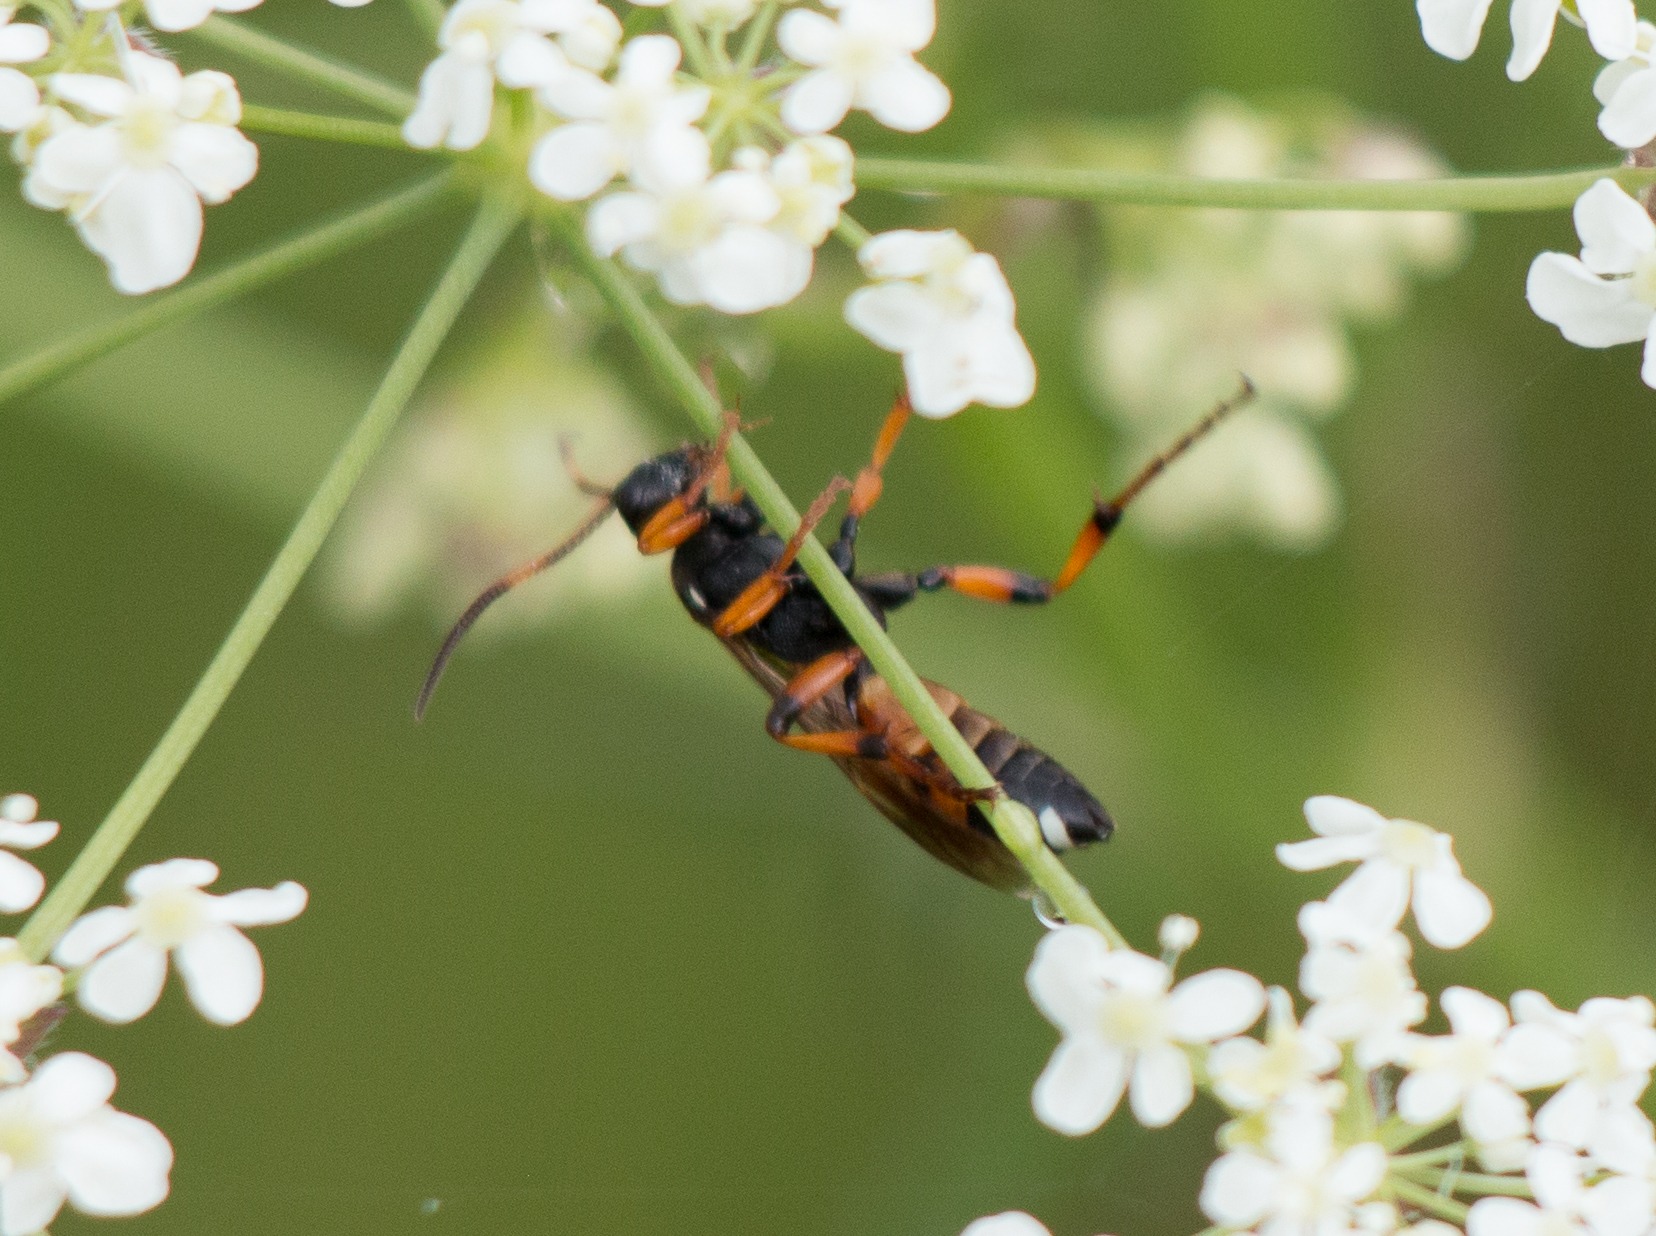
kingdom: Animalia
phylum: Arthropoda
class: Insecta
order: Hymenoptera
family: Ichneumonidae
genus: Ichneumon
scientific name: Ichneumon sarcitorius
